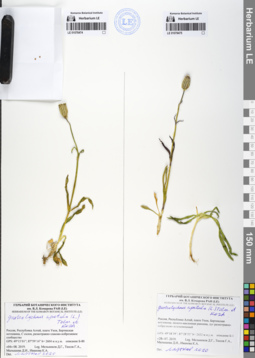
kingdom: Plantae
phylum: Tracheophyta
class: Magnoliopsida
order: Caryophyllales
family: Caryophyllaceae
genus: Silene
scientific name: Silene wahlbergella
